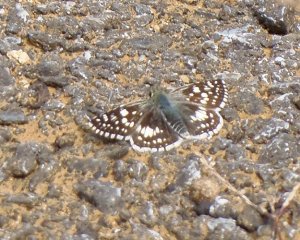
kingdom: Animalia
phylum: Arthropoda
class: Insecta
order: Lepidoptera
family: Hesperiidae
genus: Pyrgus
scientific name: Pyrgus communis
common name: Common Checkered-Skipper
